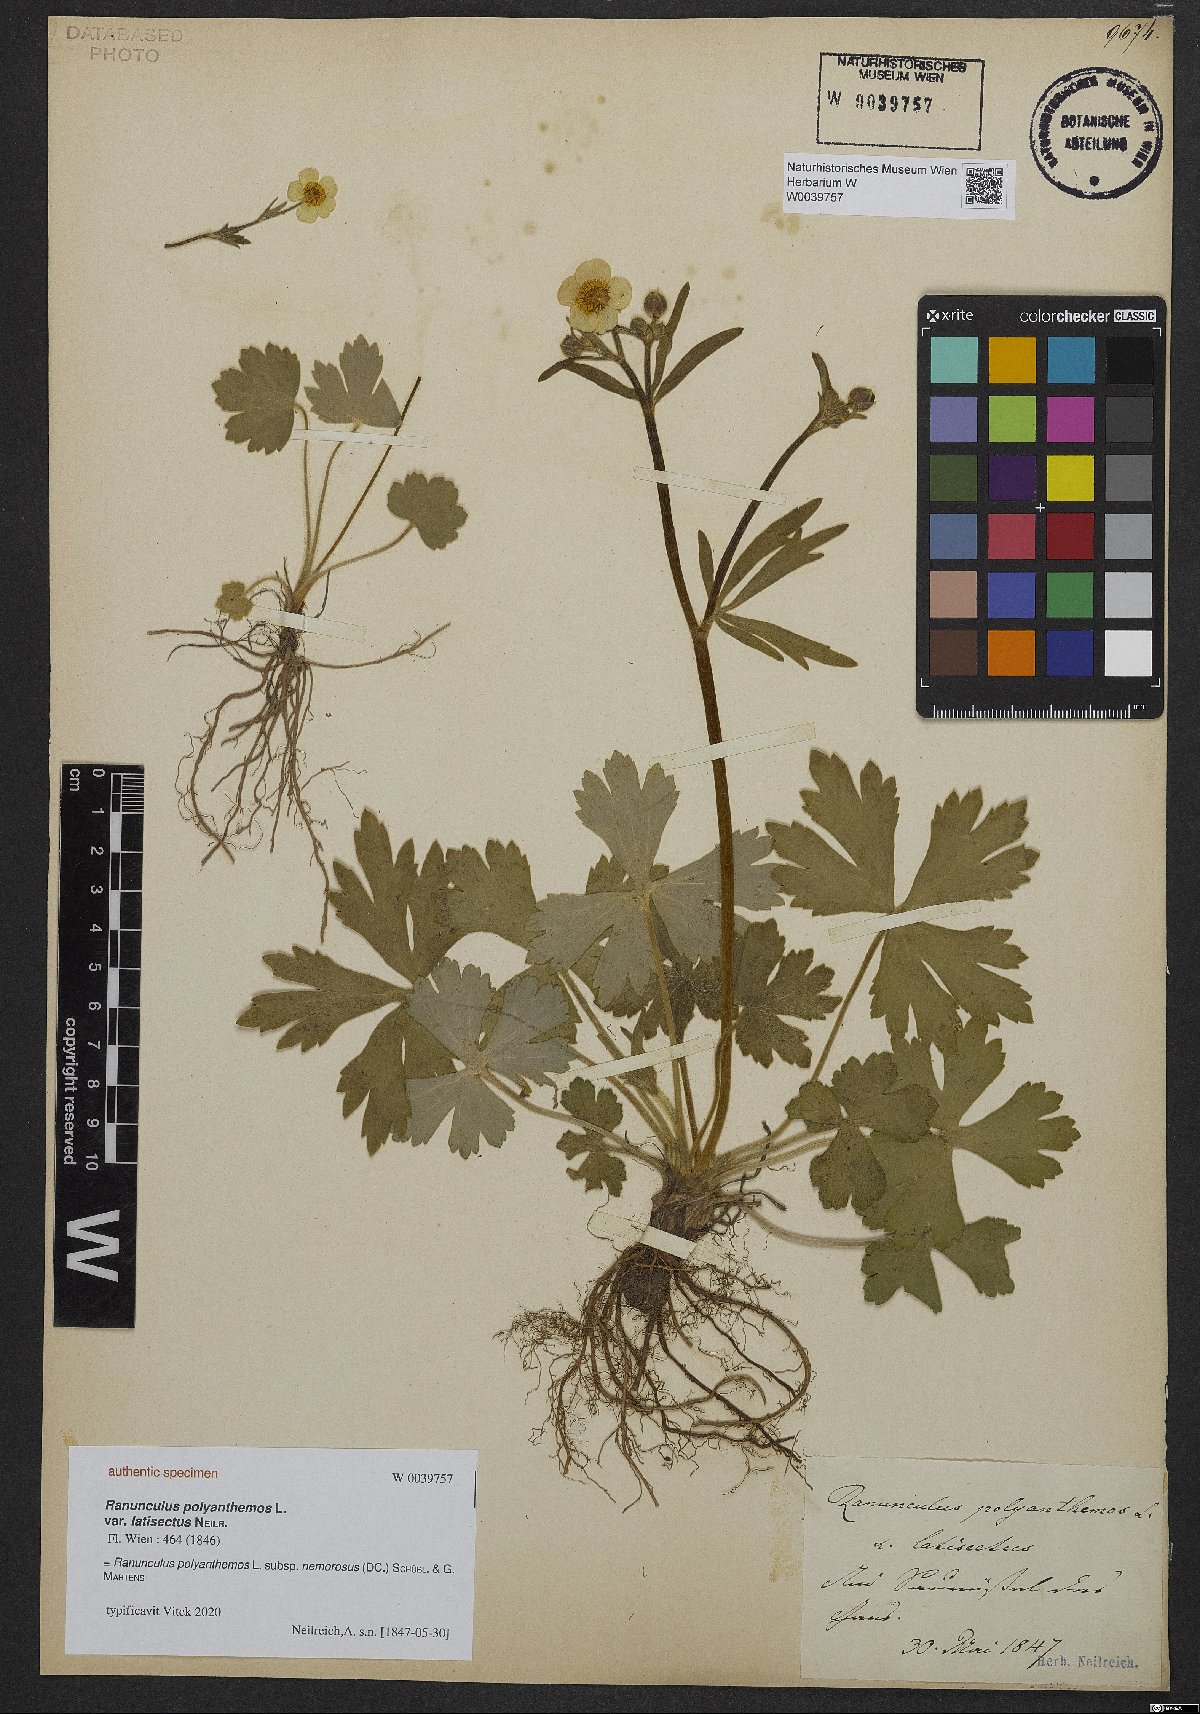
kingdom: Plantae
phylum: Tracheophyta
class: Magnoliopsida
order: Ranunculales
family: Ranunculaceae
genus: Ranunculus
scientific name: Ranunculus polyanthemos
